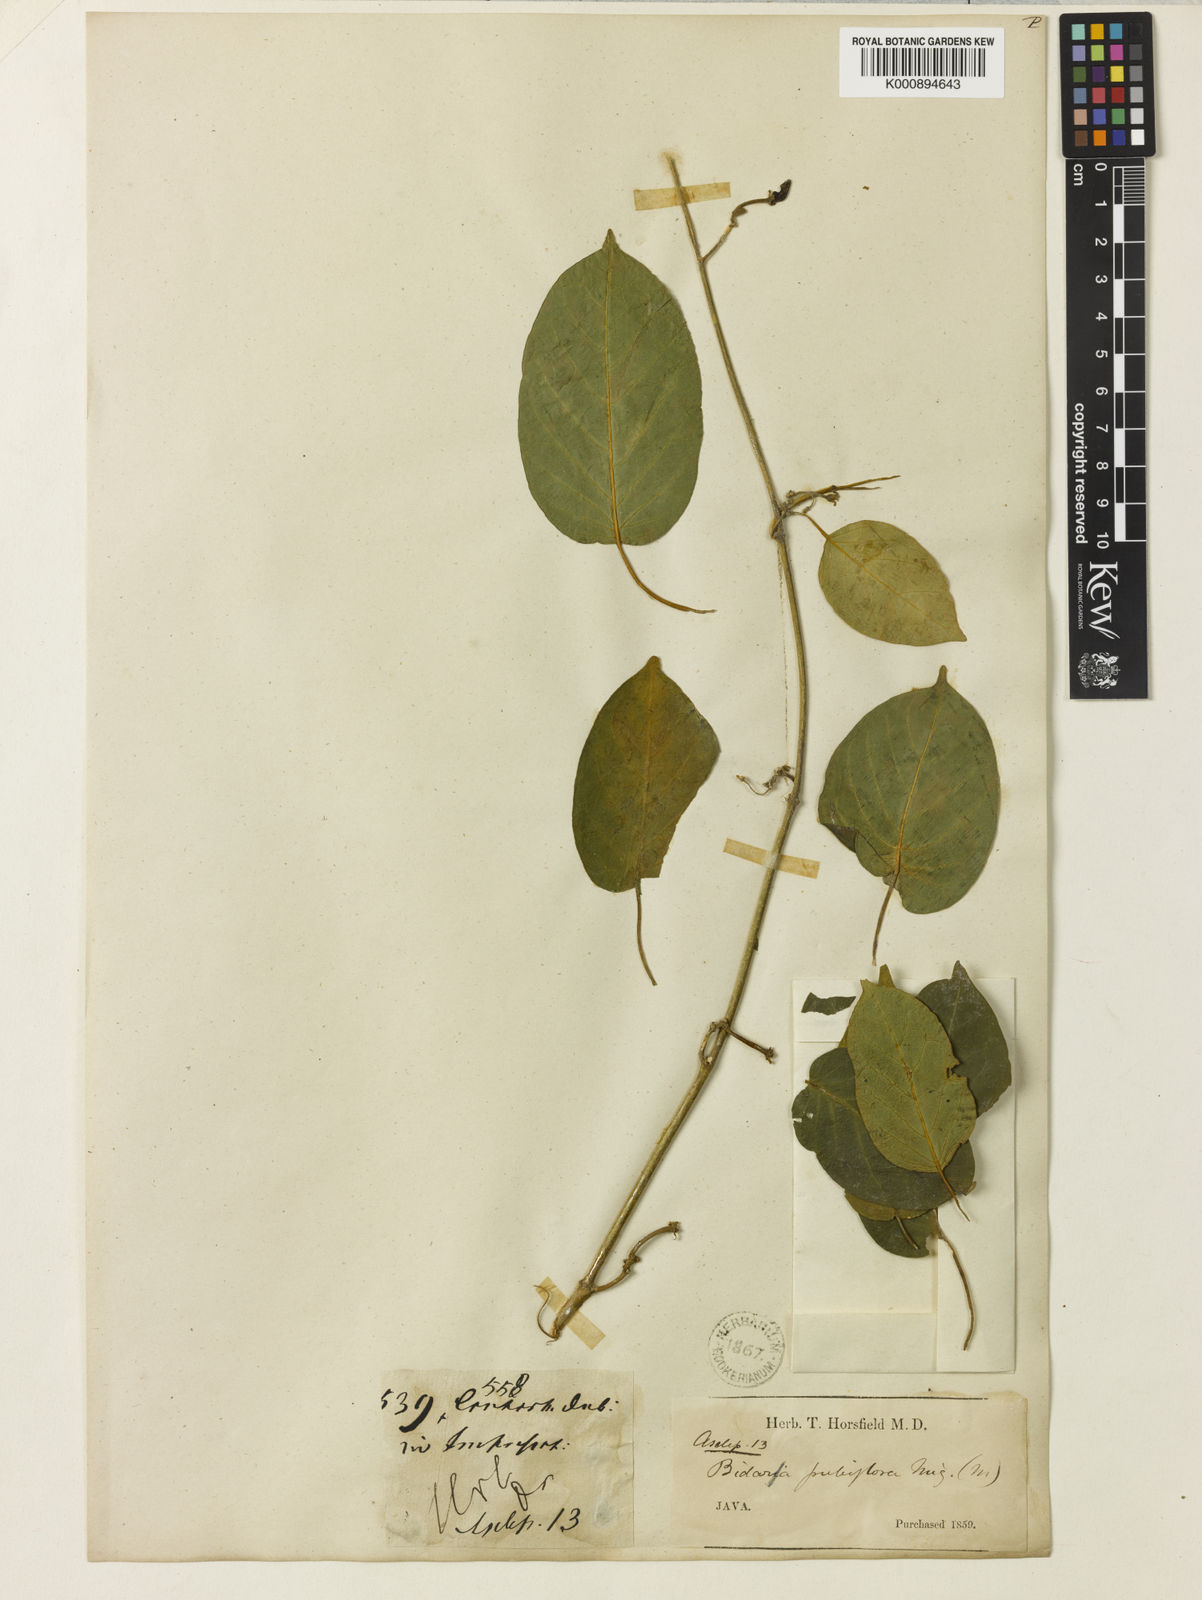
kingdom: Plantae
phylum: Tracheophyta
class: Magnoliopsida
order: Gentianales
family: Apocynaceae
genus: Gymnema
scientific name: Gymnema
